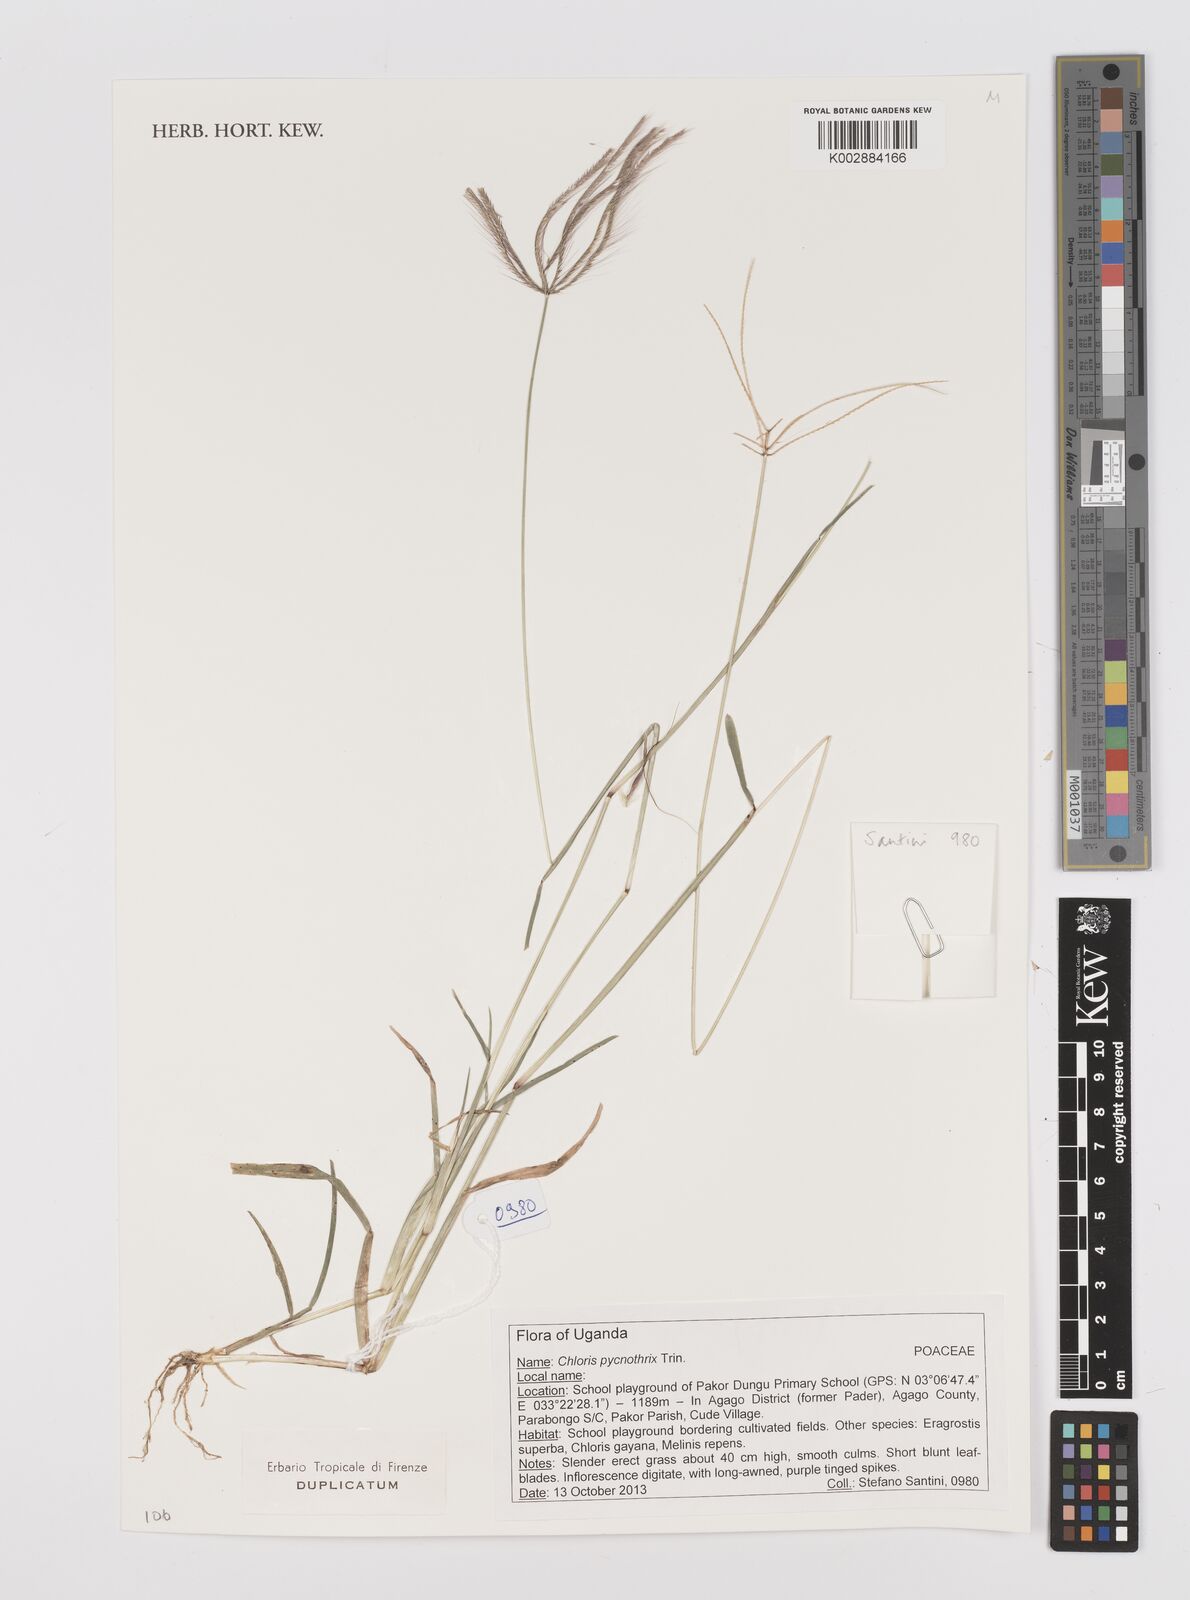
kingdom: Plantae
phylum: Tracheophyta
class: Liliopsida
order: Poales
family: Poaceae
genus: Chloris
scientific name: Chloris pycnothrix
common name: Spiderweb chloris
